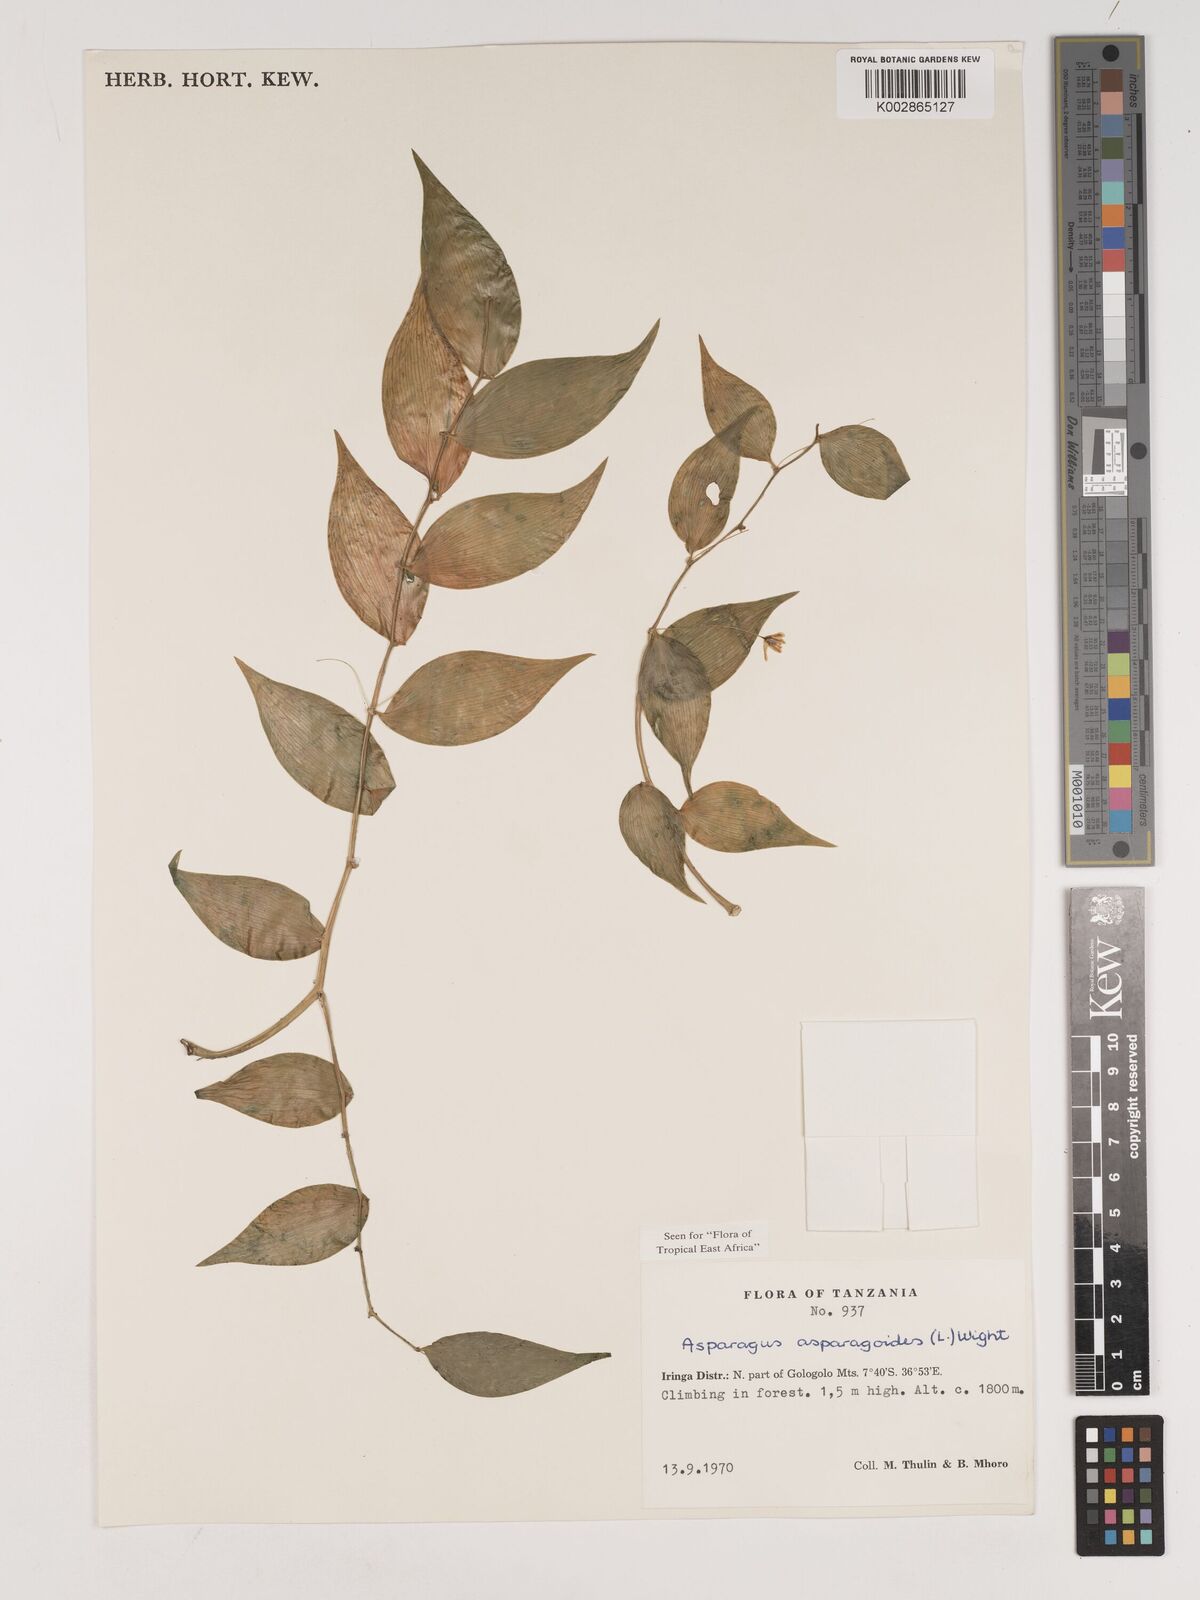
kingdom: Plantae
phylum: Tracheophyta
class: Liliopsida
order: Asparagales
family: Asparagaceae
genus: Asparagus
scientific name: Asparagus asparagoides
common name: African asparagus fern
